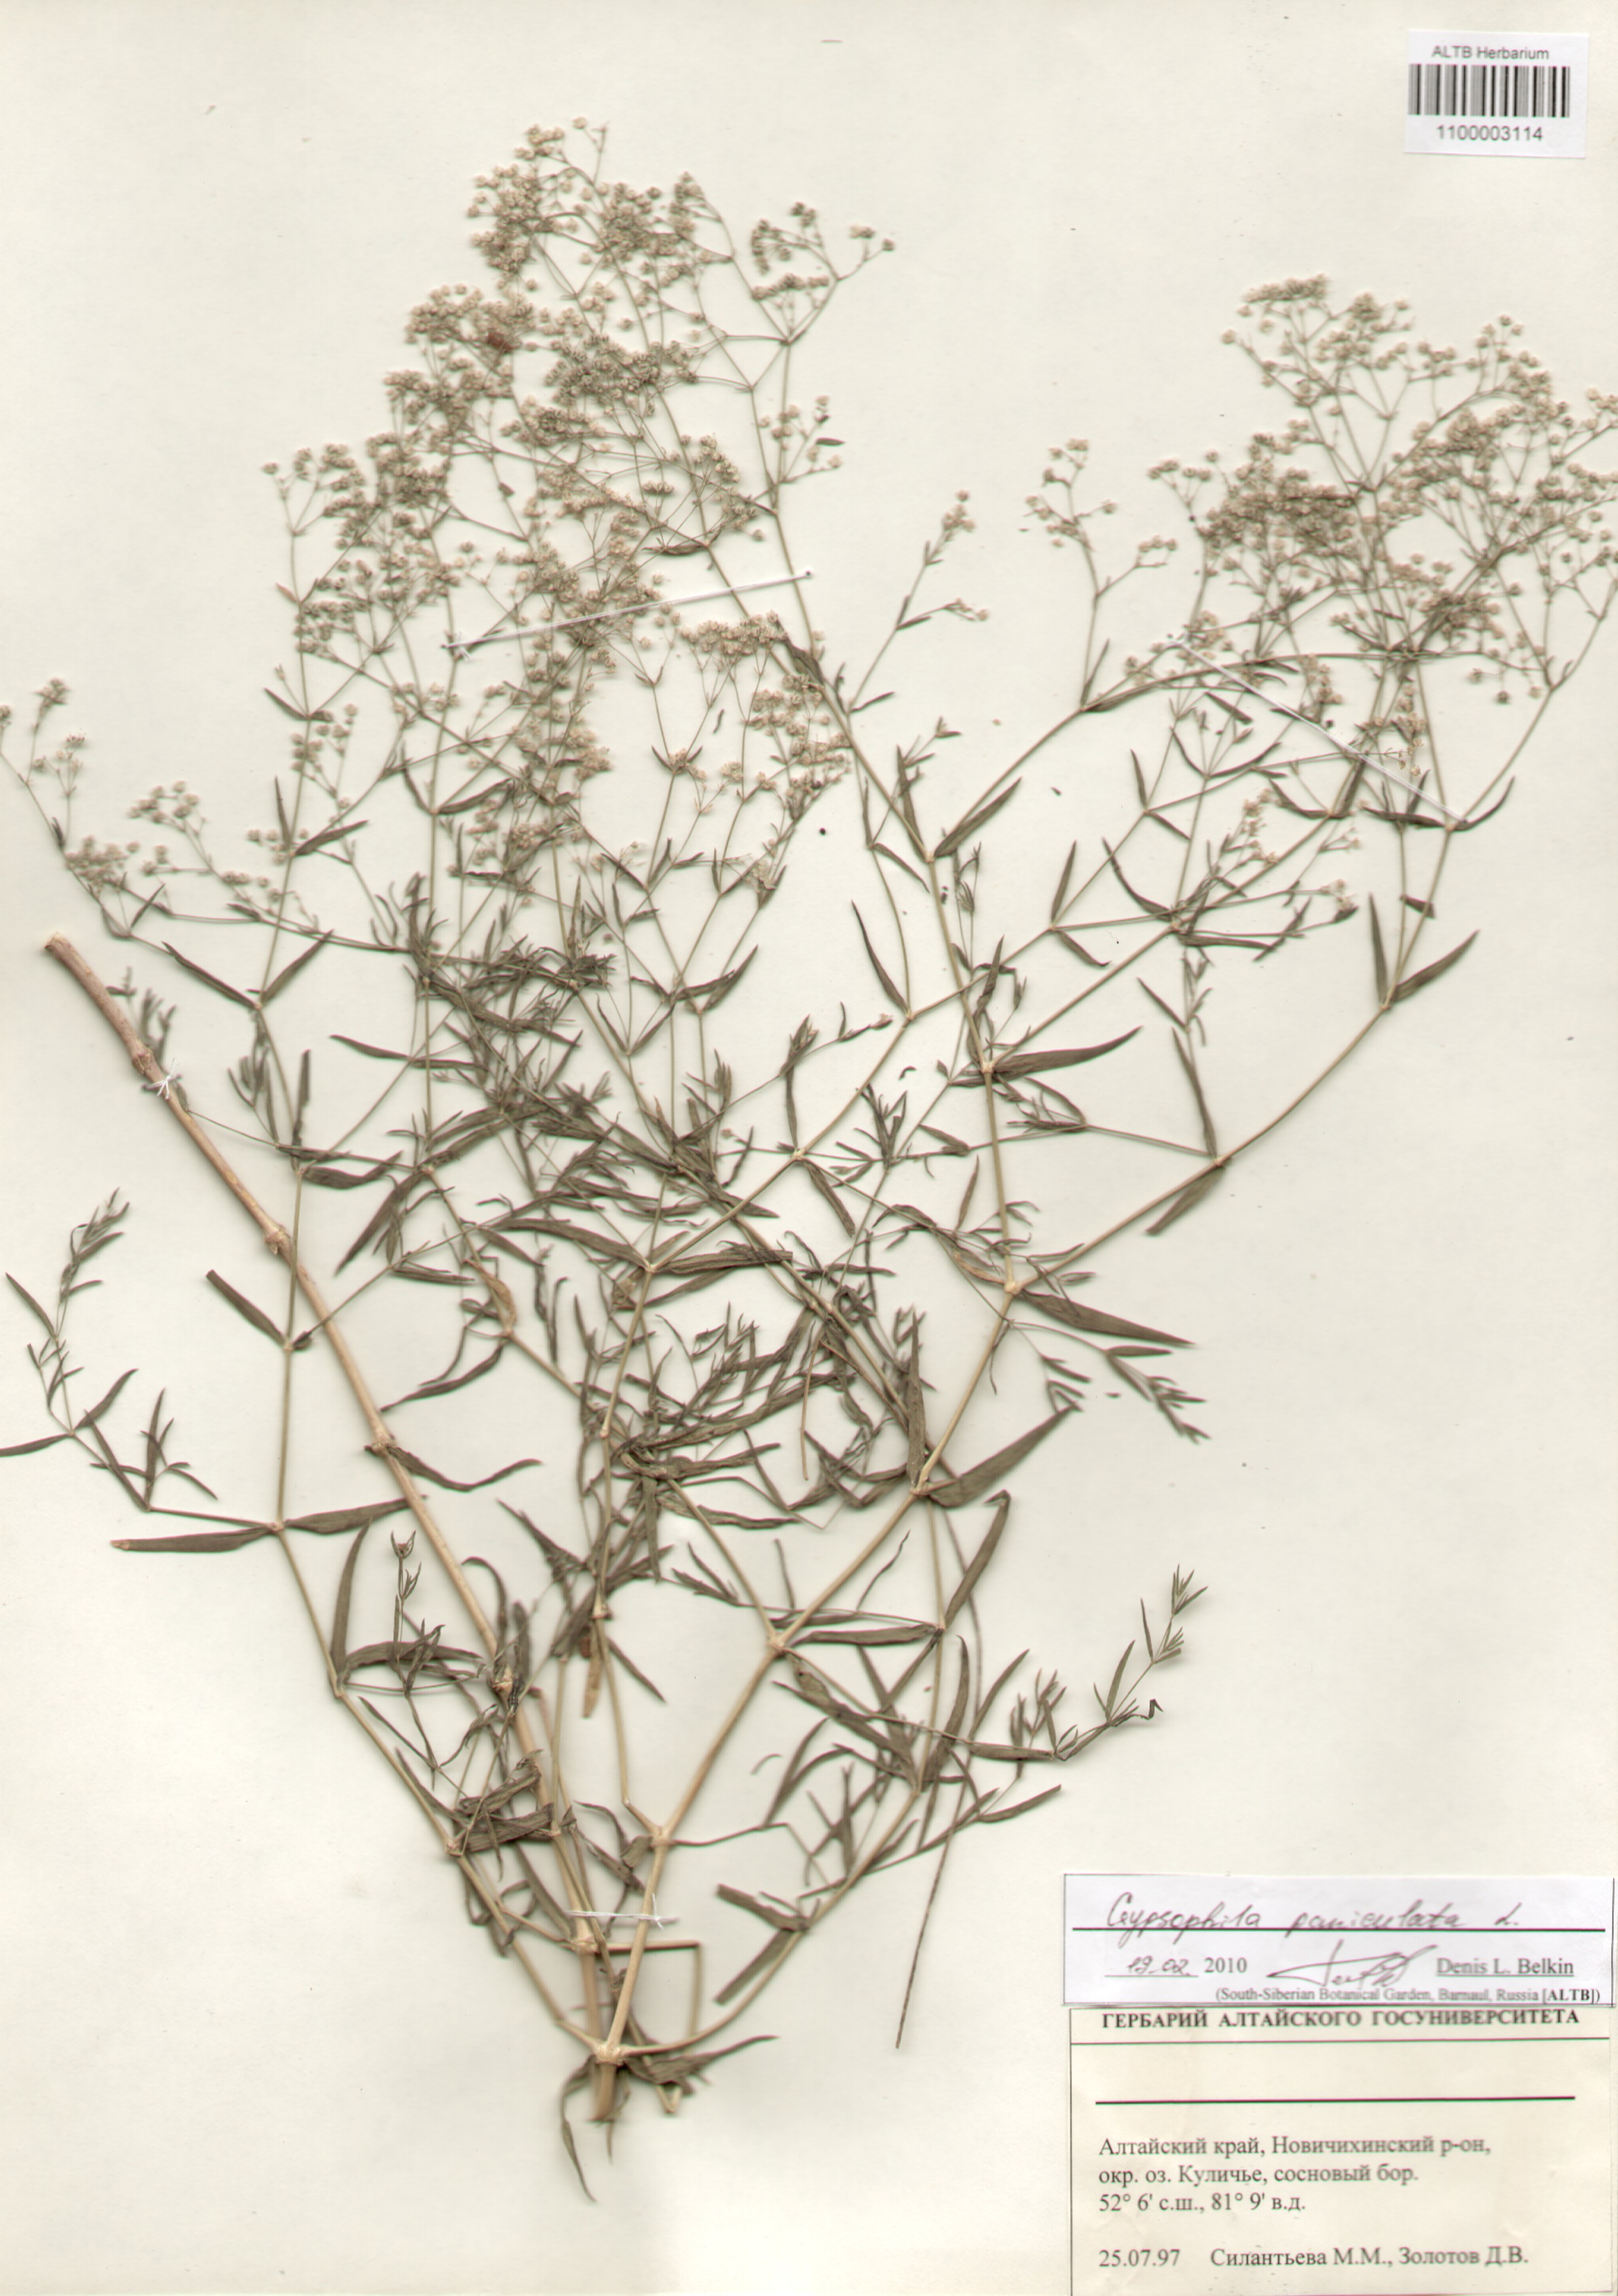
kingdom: Plantae
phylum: Tracheophyta
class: Magnoliopsida
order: Caryophyllales
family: Caryophyllaceae
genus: Gypsophila
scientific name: Gypsophila paniculata
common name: Baby's-breath
